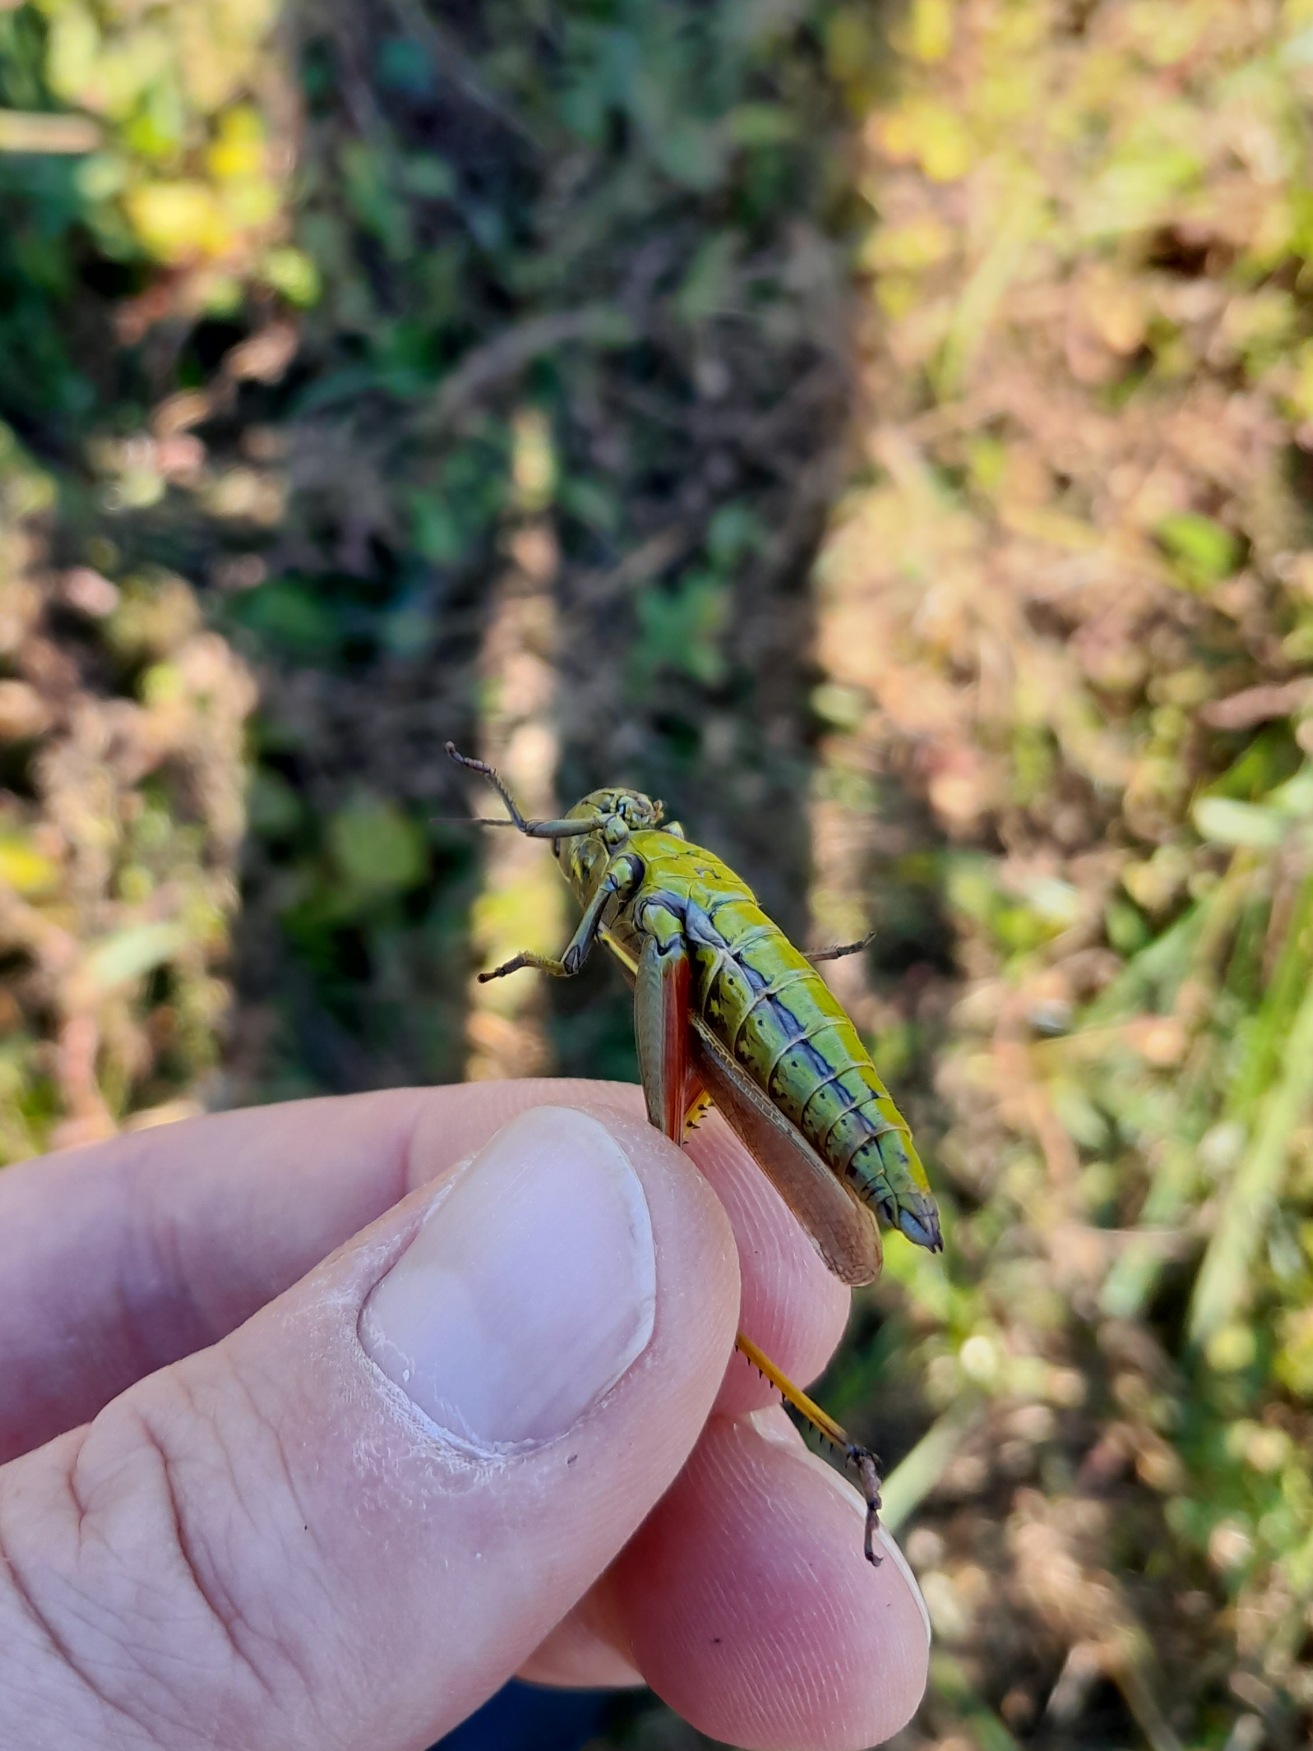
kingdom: Animalia
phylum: Arthropoda
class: Insecta
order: Orthoptera
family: Acrididae
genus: Stethophyma
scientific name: Stethophyma grossum
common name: Sumpgræshoppe
